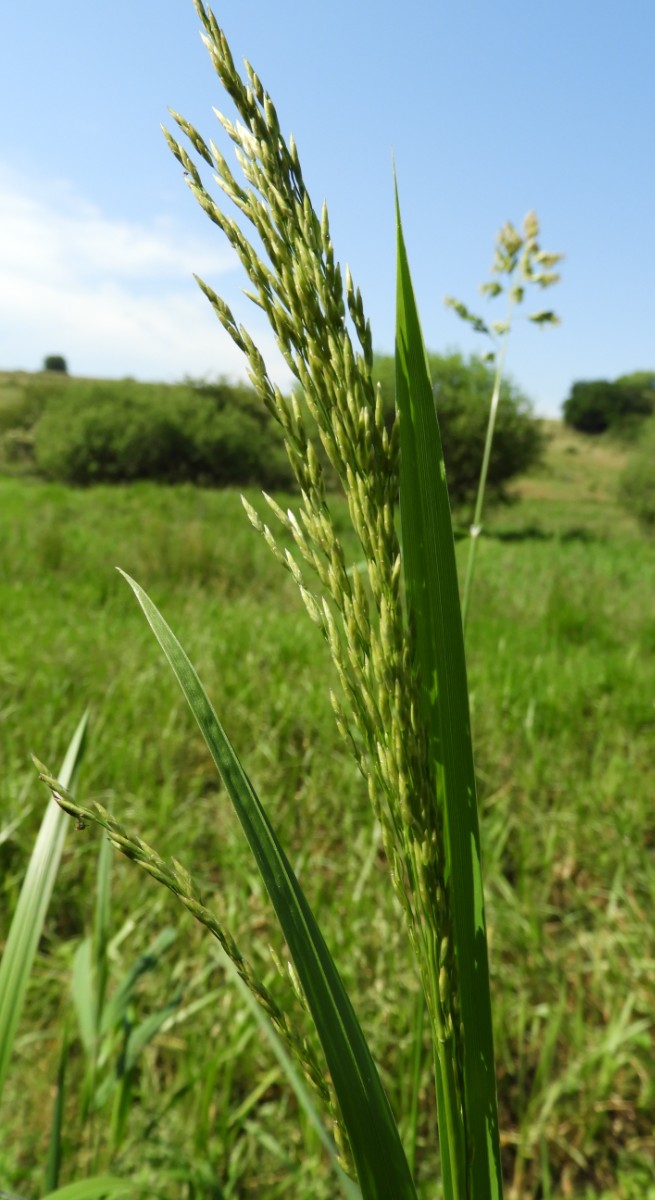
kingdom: Fungi
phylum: Basidiomycota
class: Ustilaginomycetes
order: Ustilaginales
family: Ustilaginaceae
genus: Ustilago
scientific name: Ustilago filiformis
